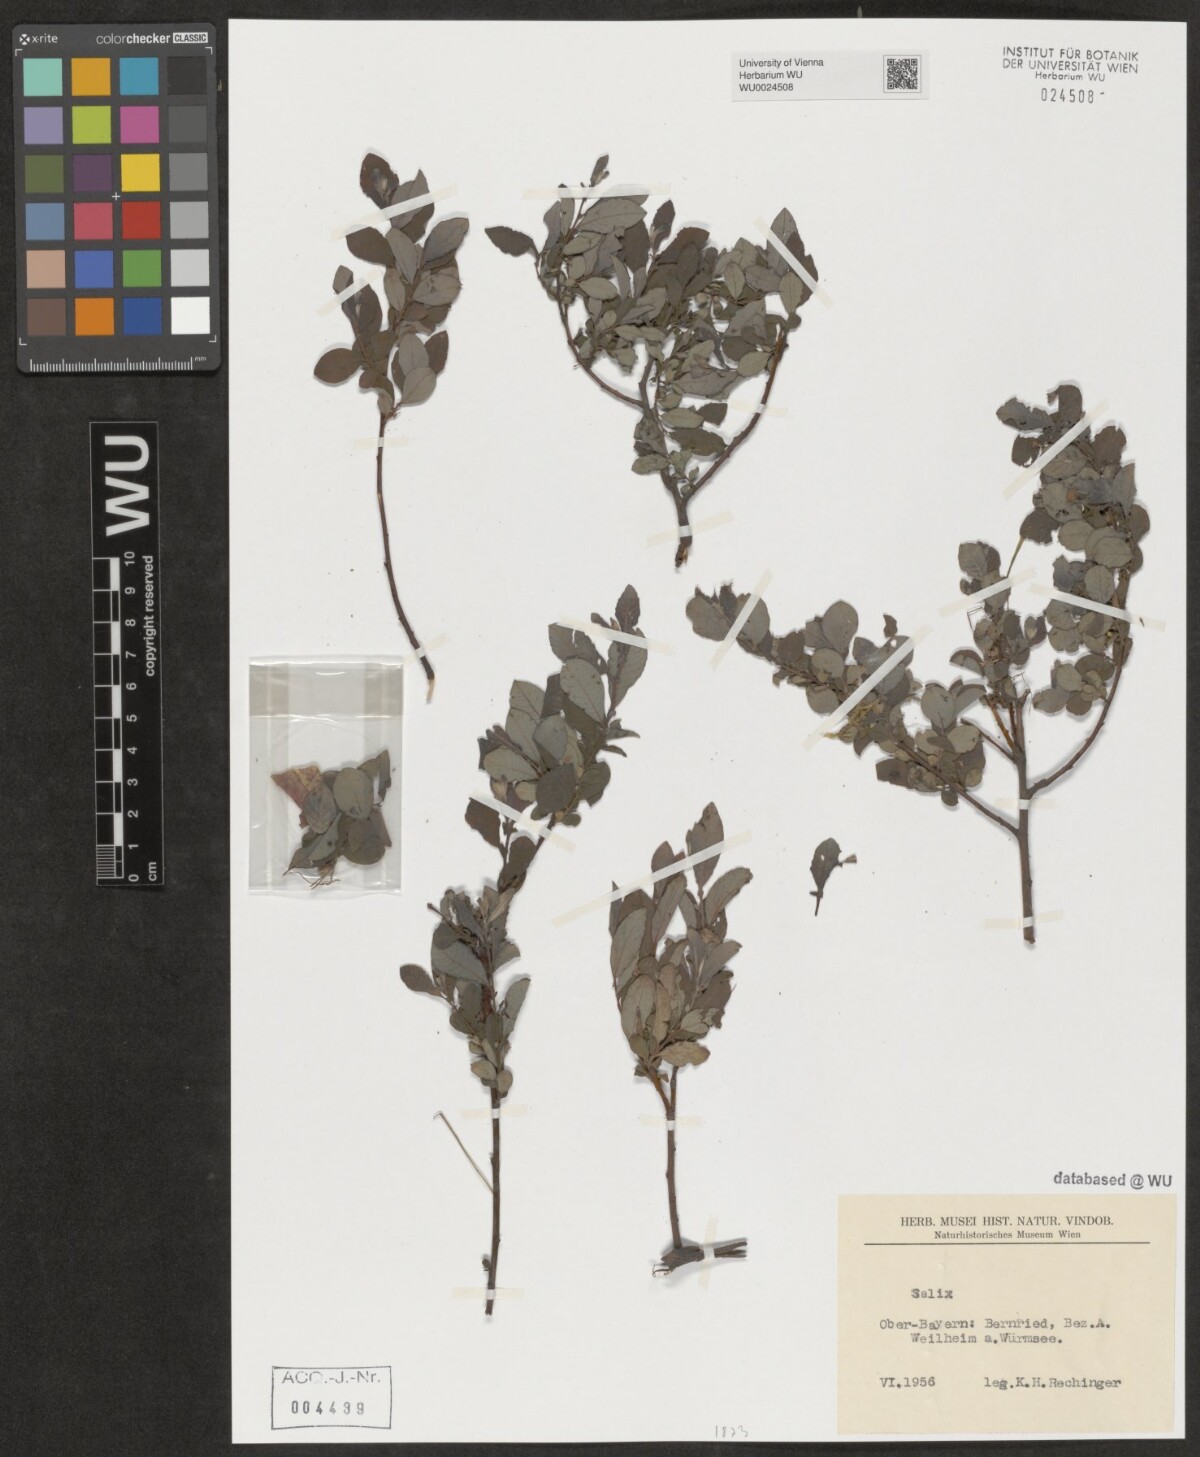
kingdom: Plantae
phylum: Tracheophyta
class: Magnoliopsida
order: Malpighiales
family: Salicaceae
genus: Salix
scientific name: Salix
